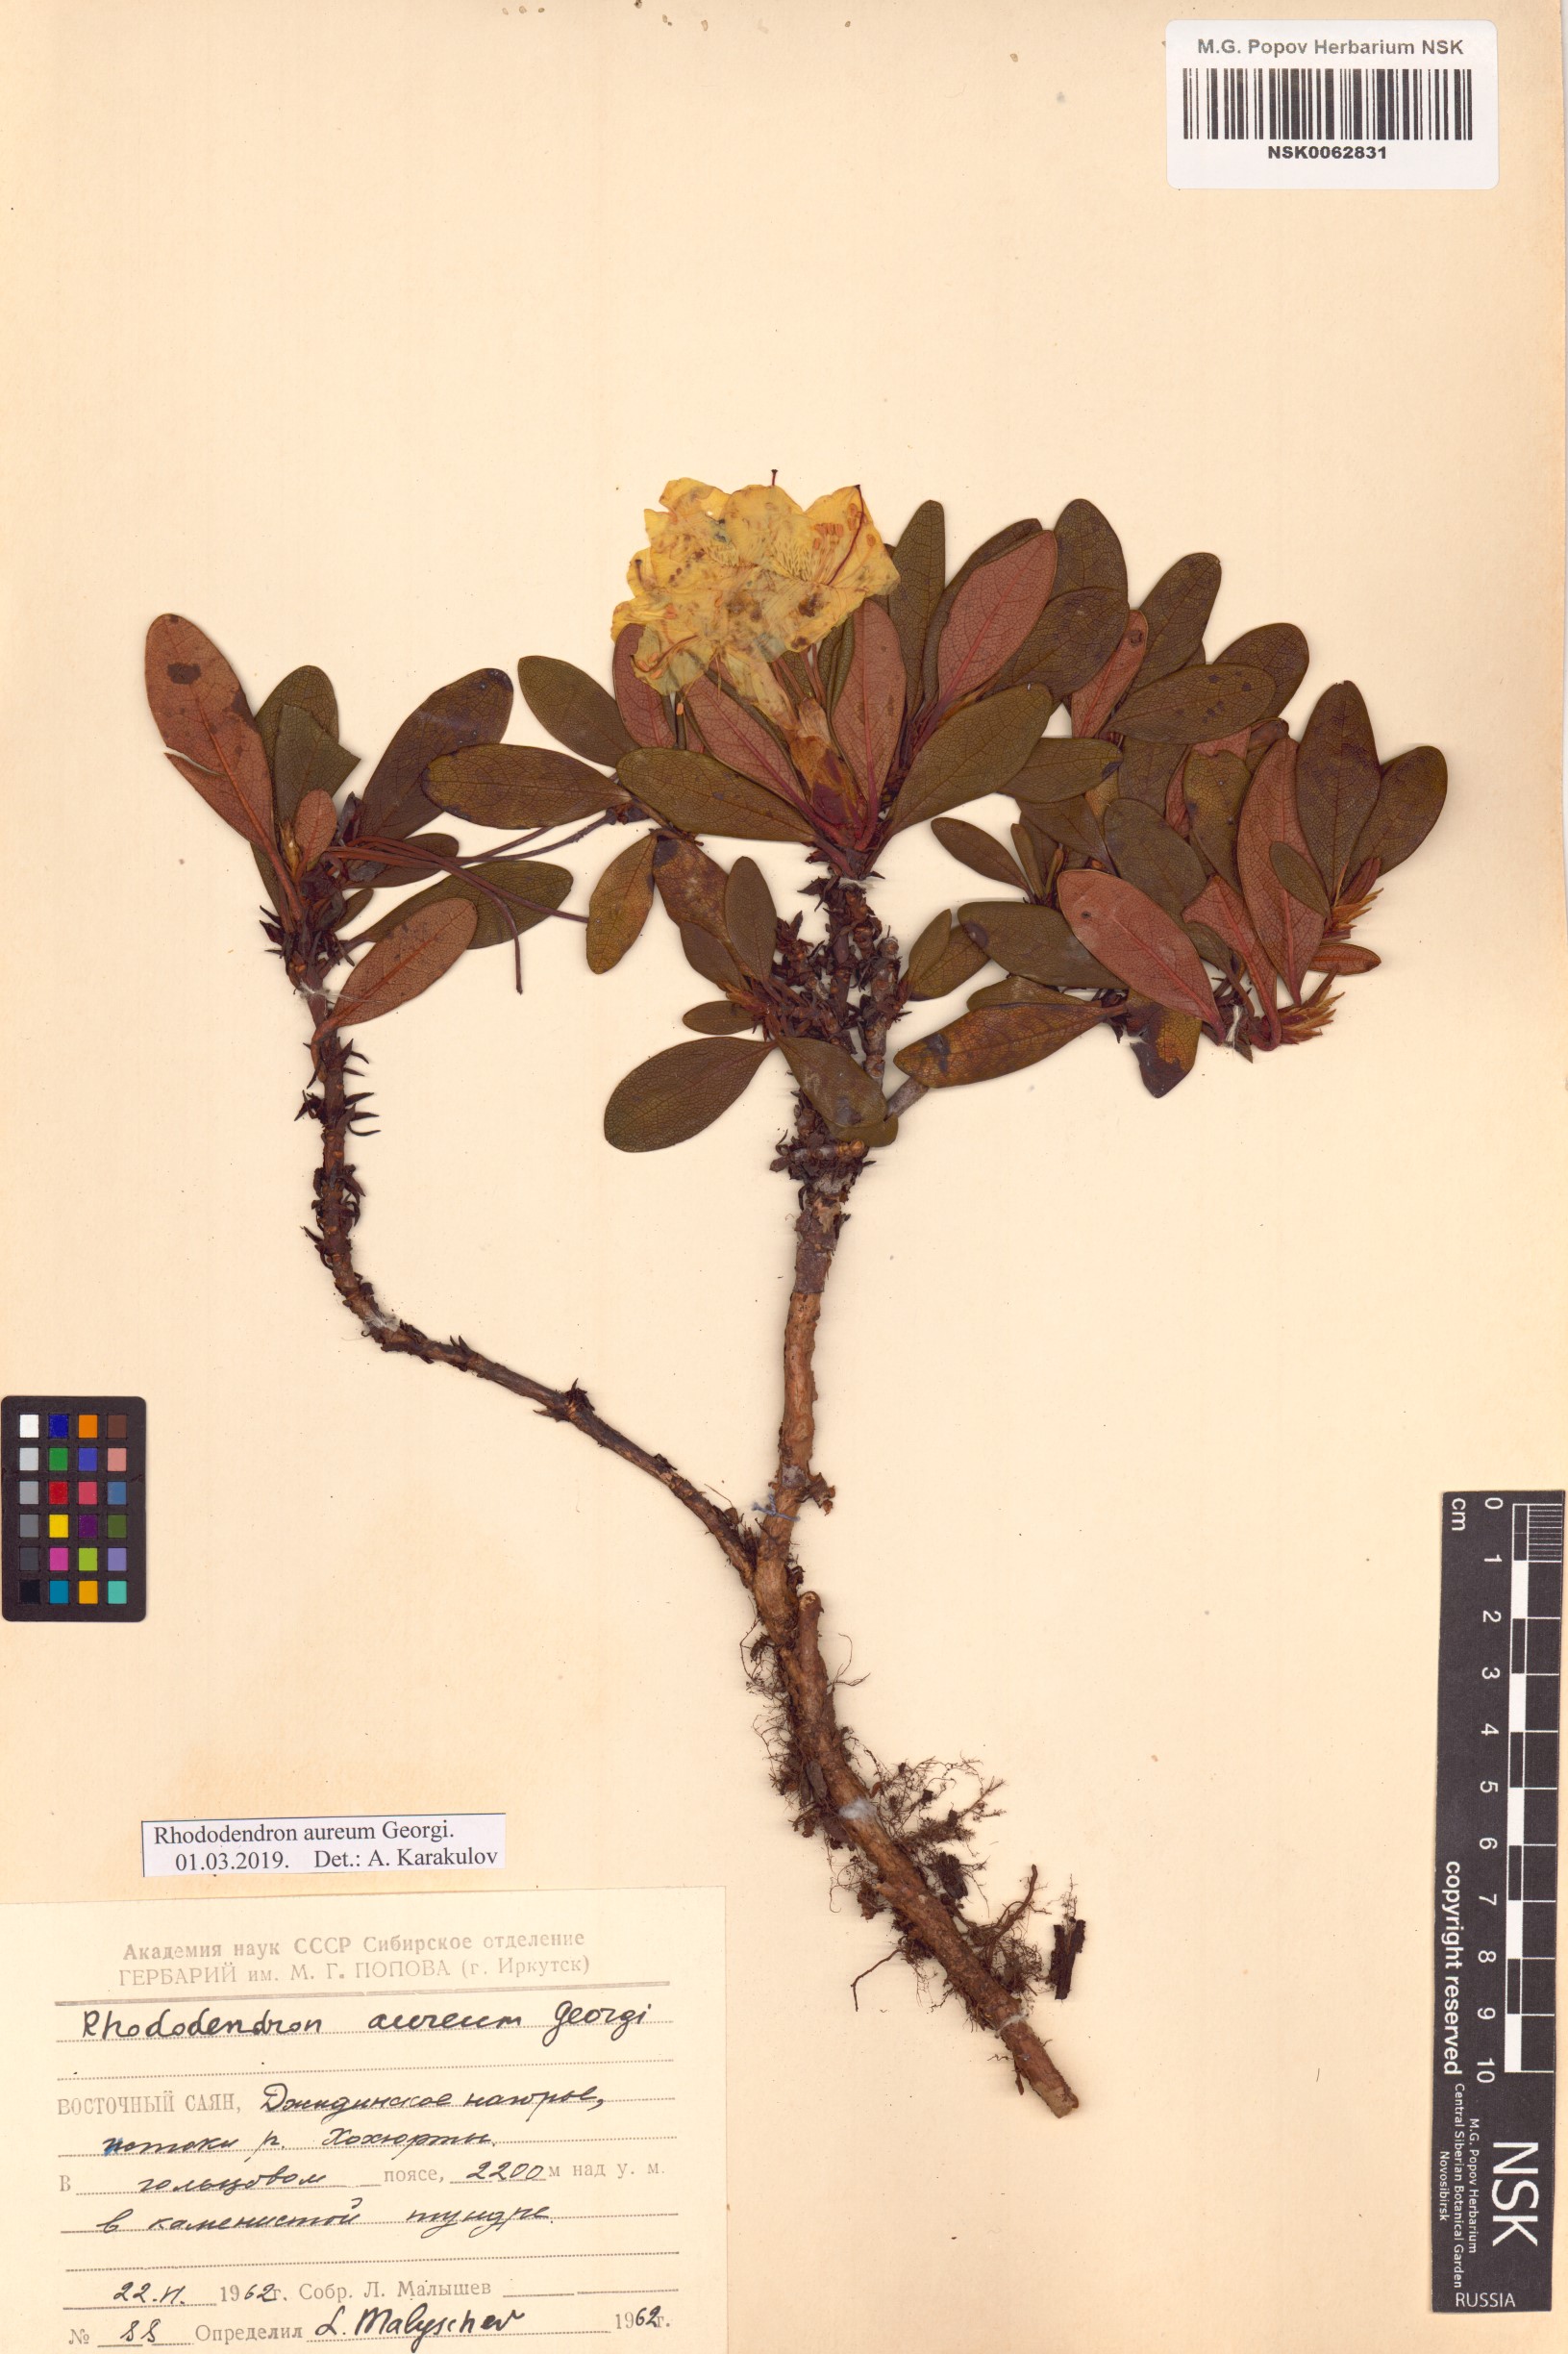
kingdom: Plantae
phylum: Tracheophyta
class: Magnoliopsida
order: Ericales
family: Ericaceae
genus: Rhododendron
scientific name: Rhododendron aureum
